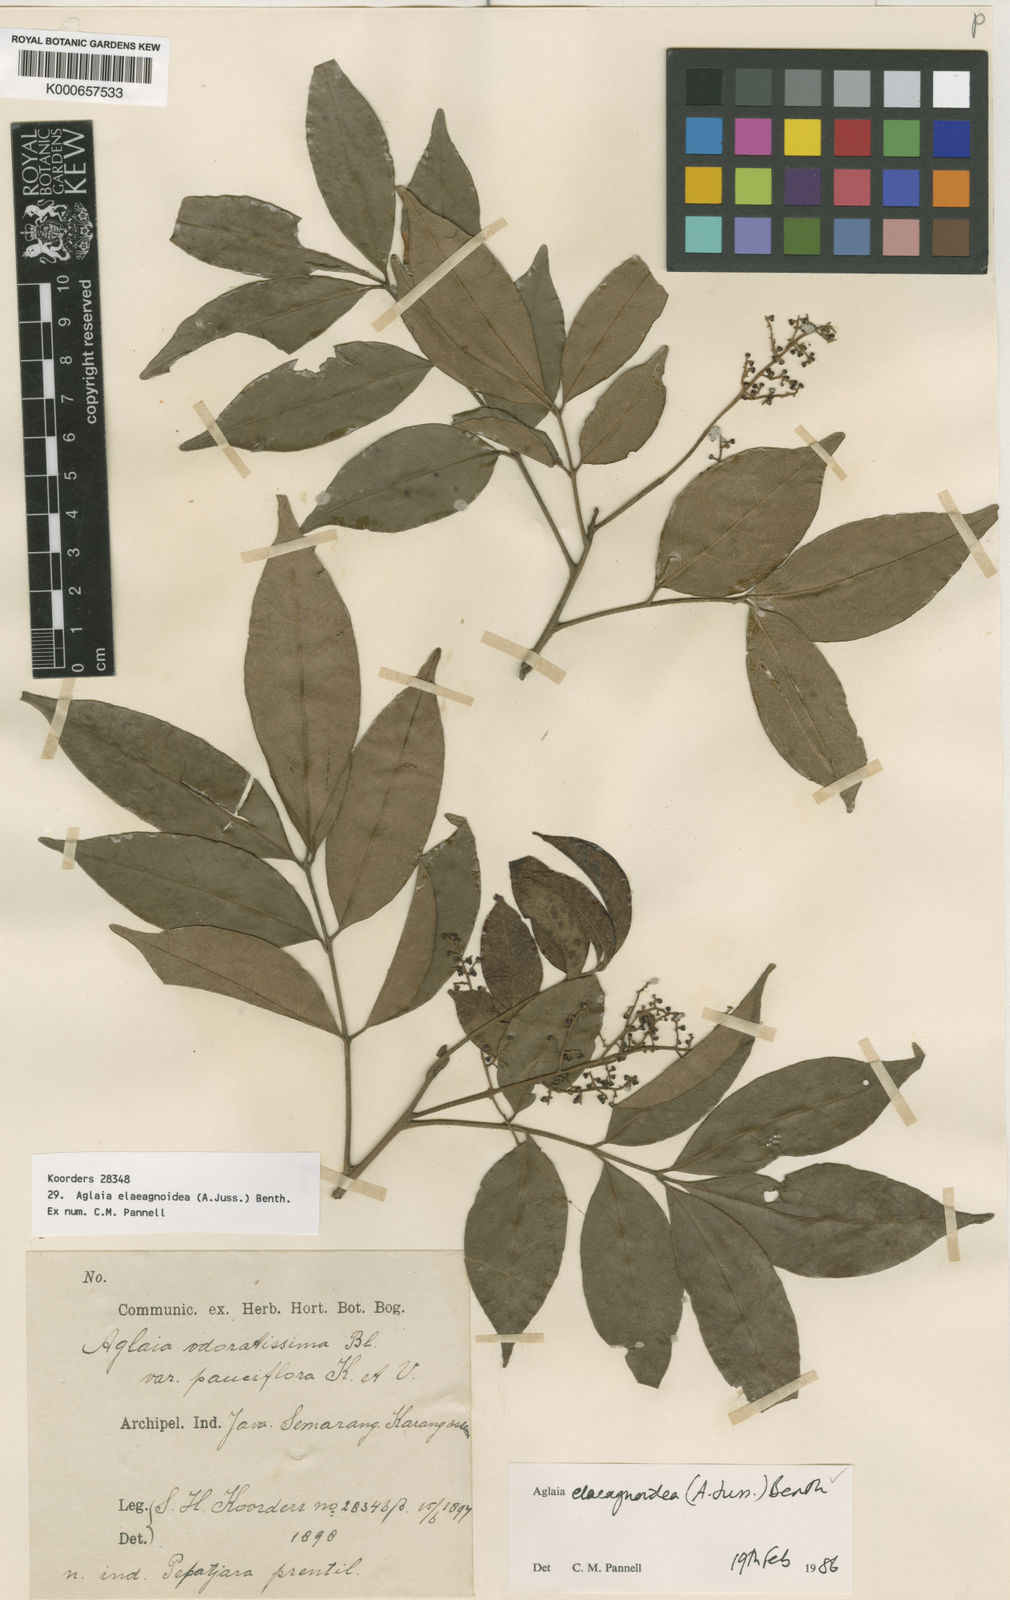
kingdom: Plantae
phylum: Tracheophyta
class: Magnoliopsida
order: Sapindales
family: Meliaceae
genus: Aglaia
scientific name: Aglaia elaeagnoidea
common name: Droopyleaf
